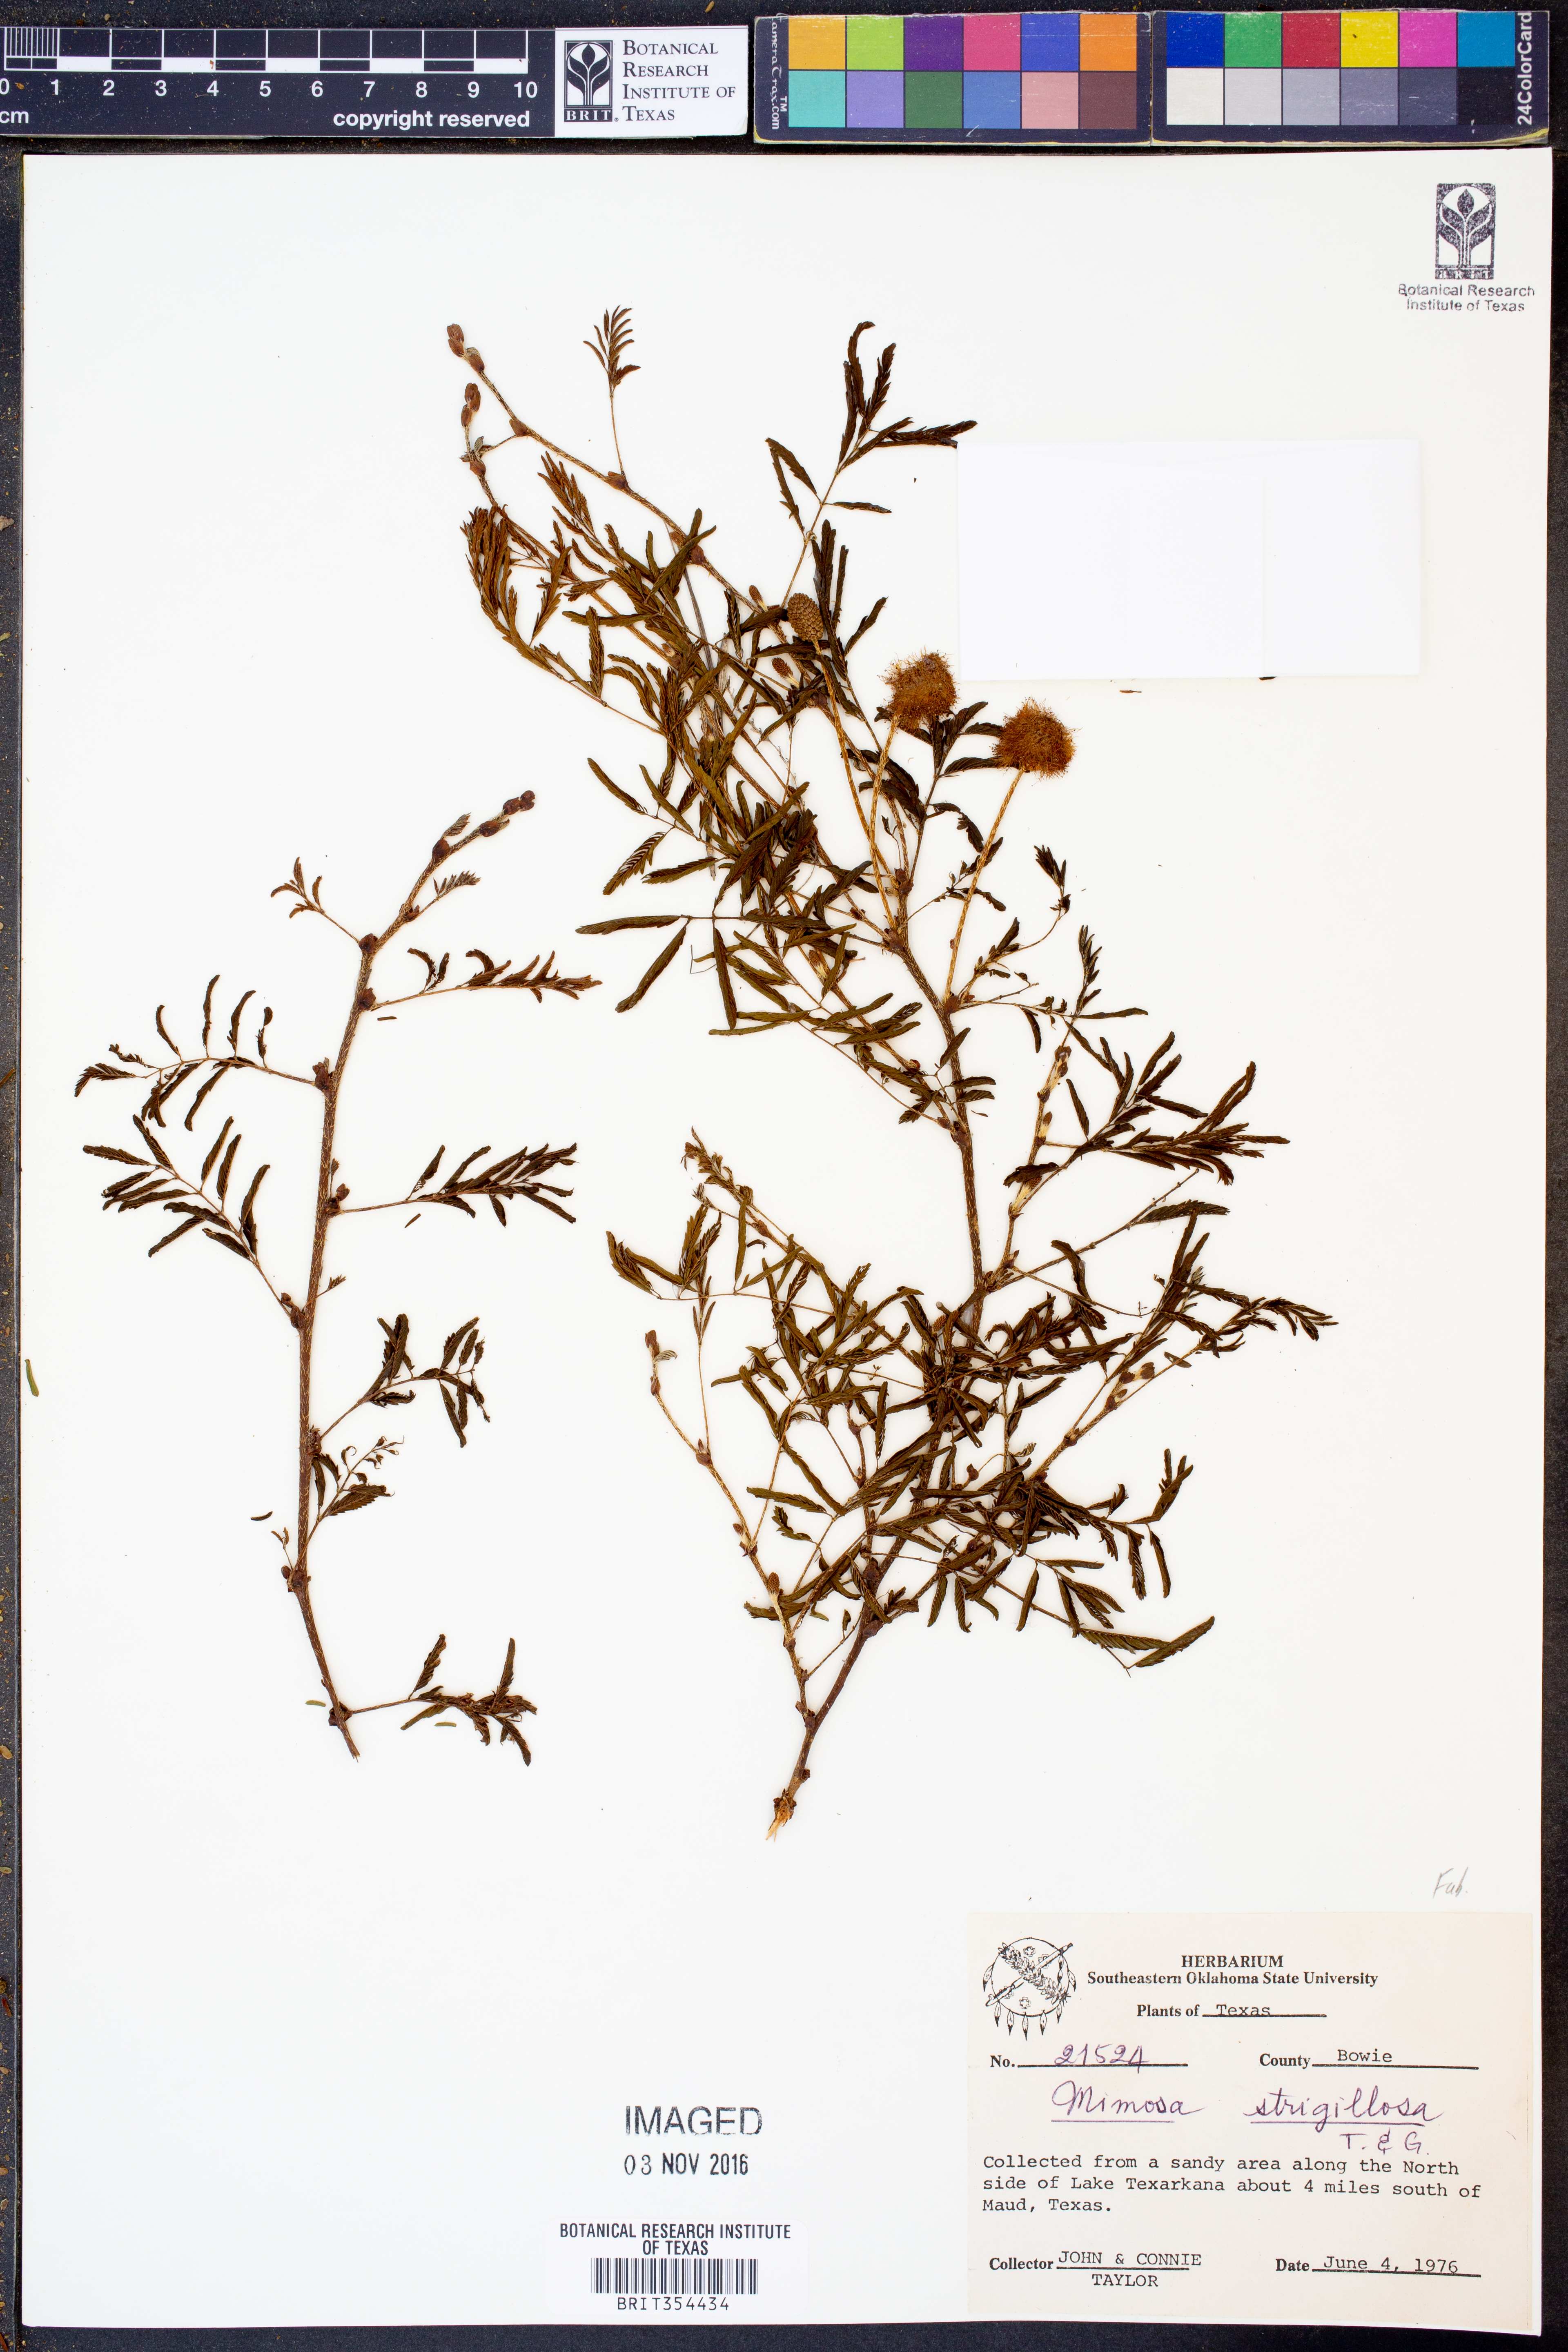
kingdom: Plantae
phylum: Tracheophyta
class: Magnoliopsida
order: Fabales
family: Fabaceae
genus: Mimosa
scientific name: Mimosa strigillosa
